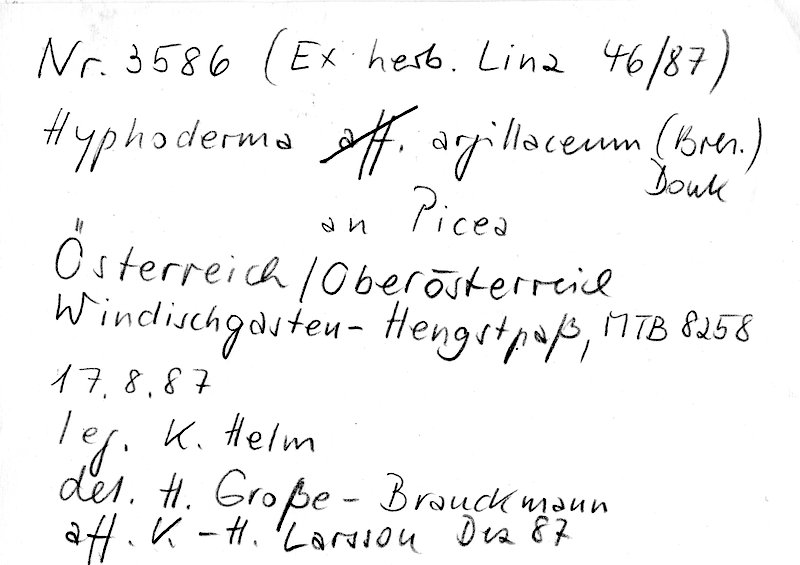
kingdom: Plantae
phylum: Tracheophyta
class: Pinopsida
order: Pinales
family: Pinaceae
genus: Picea
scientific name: Picea
